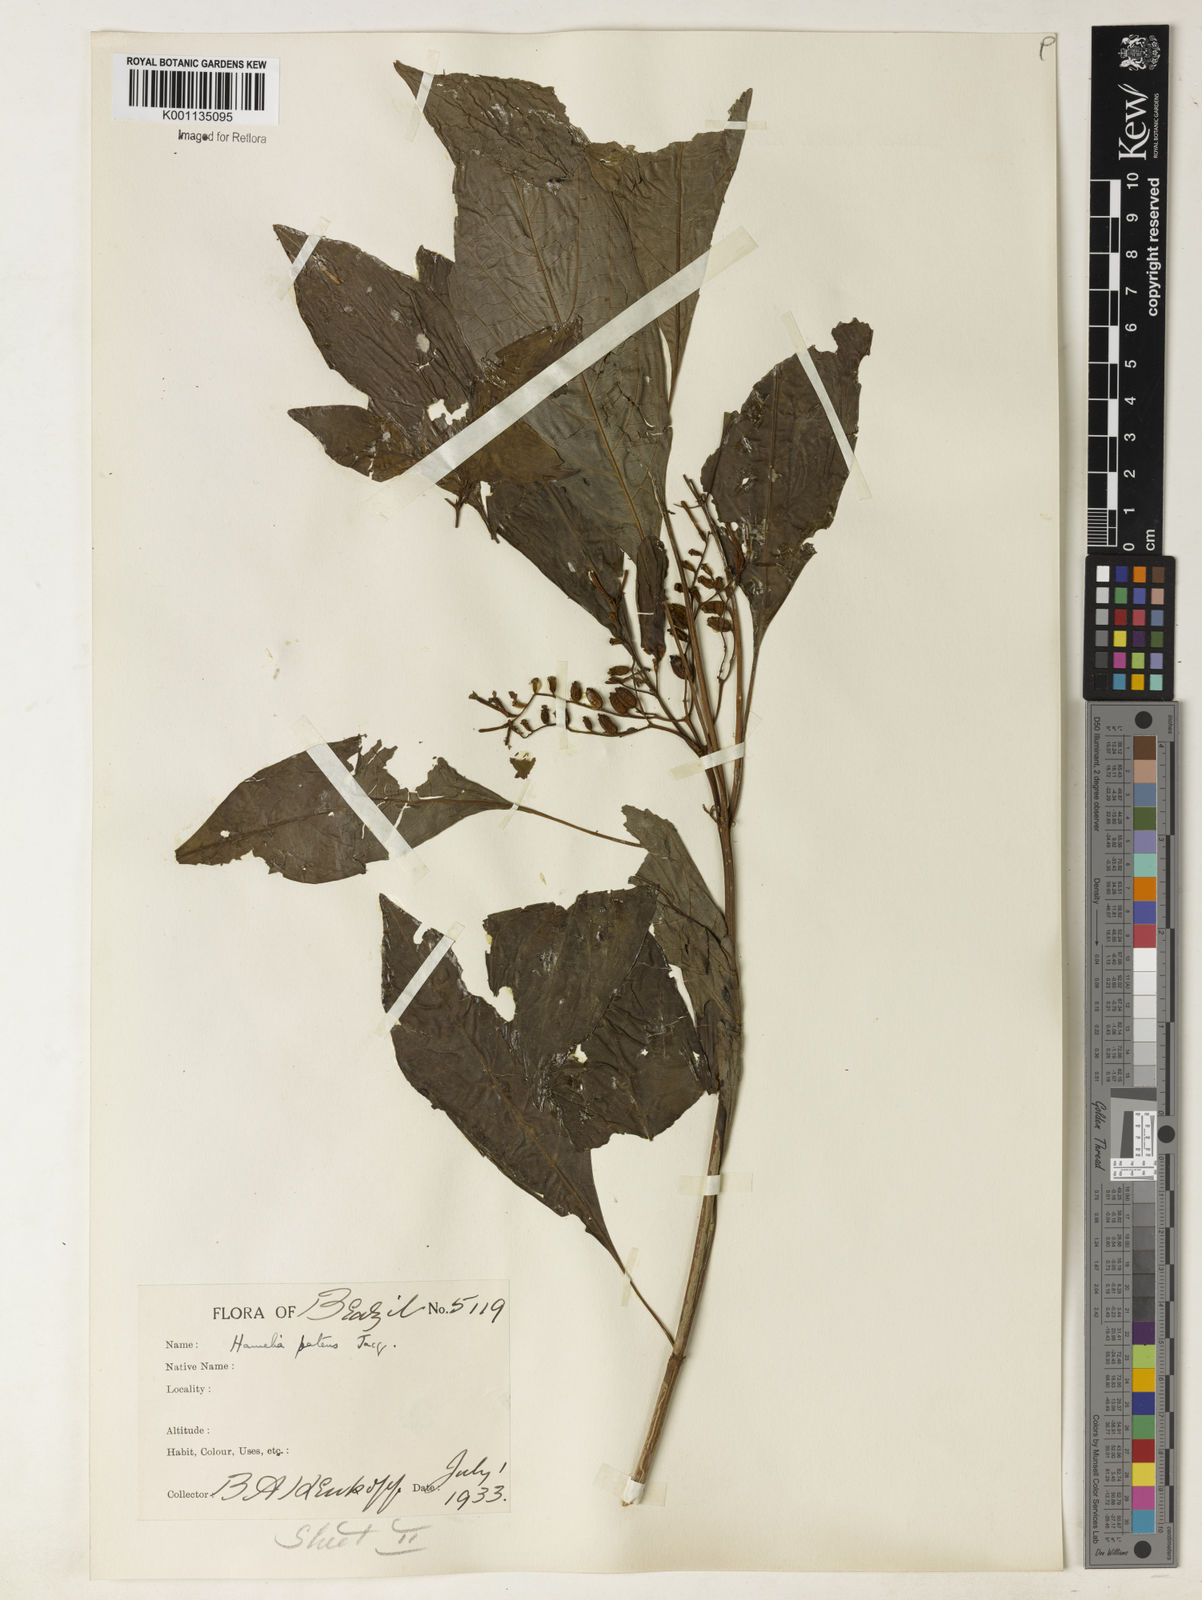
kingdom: Plantae
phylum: Tracheophyta
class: Magnoliopsida
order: Gentianales
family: Rubiaceae
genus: Hamelia
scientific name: Hamelia patens
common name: Redhead
